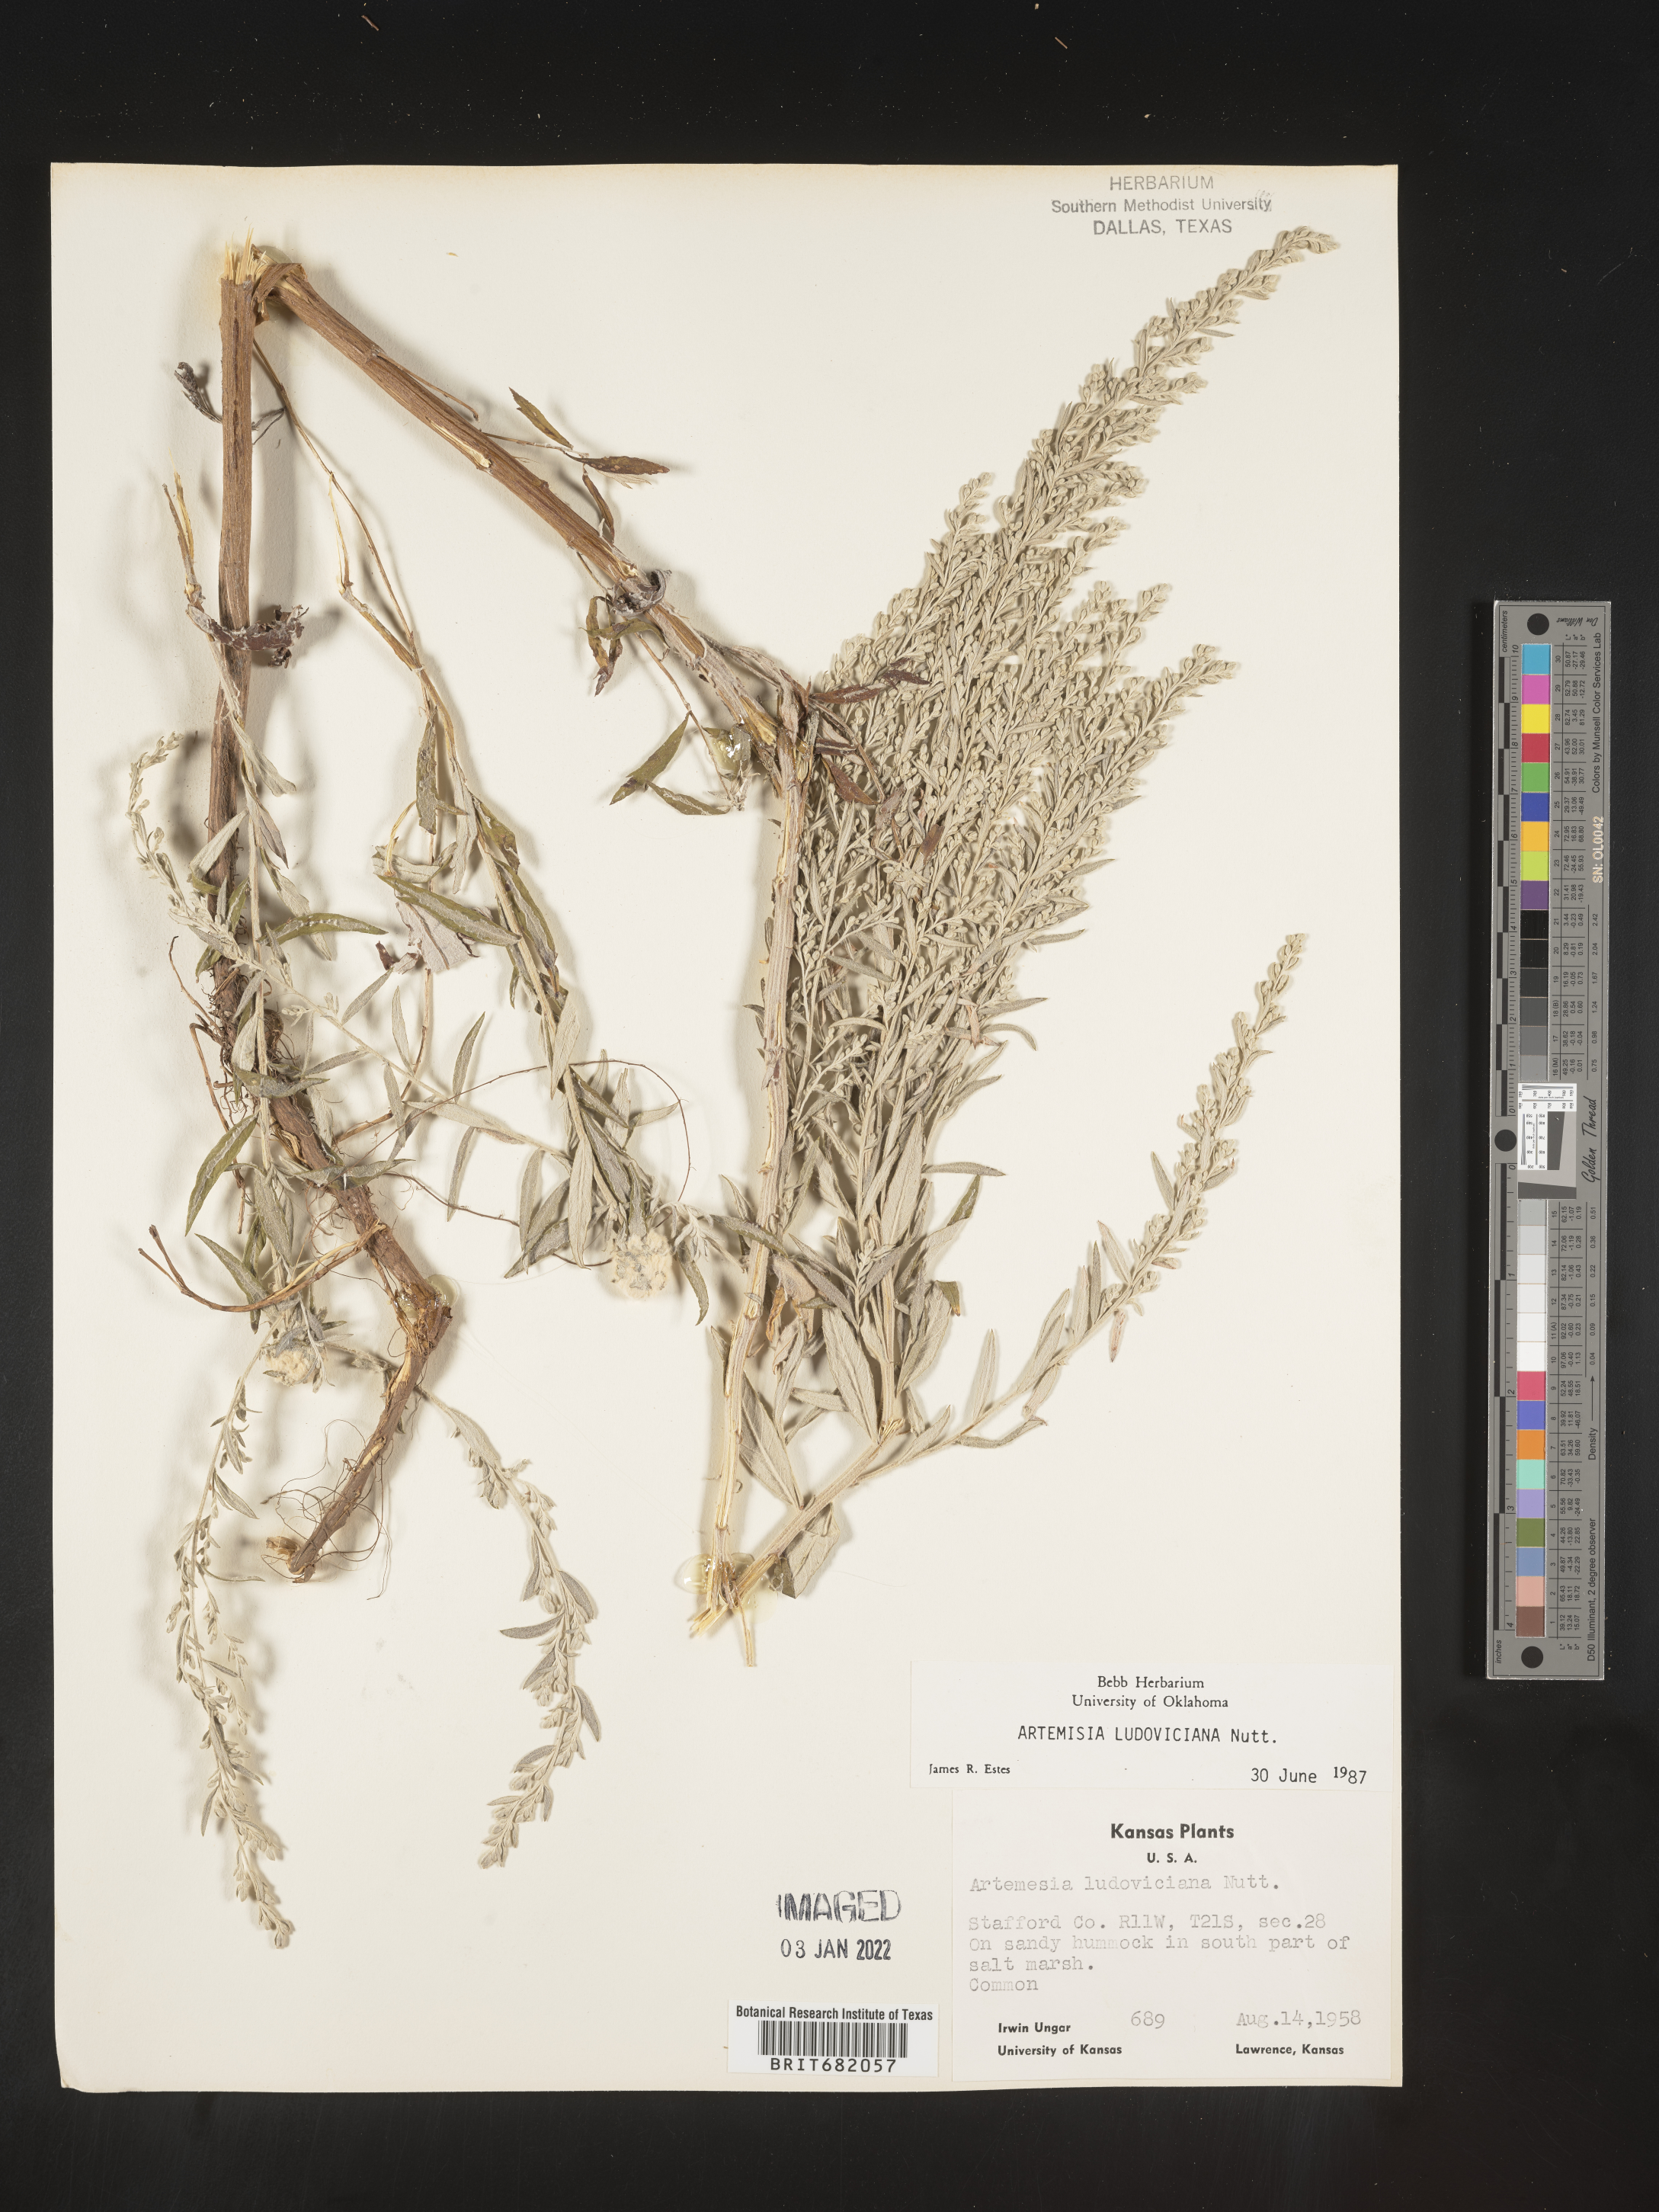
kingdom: Plantae
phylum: Tracheophyta
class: Magnoliopsida
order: Asterales
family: Asteraceae
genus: Artemisia
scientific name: Artemisia ludoviciana
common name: Western mugwort
